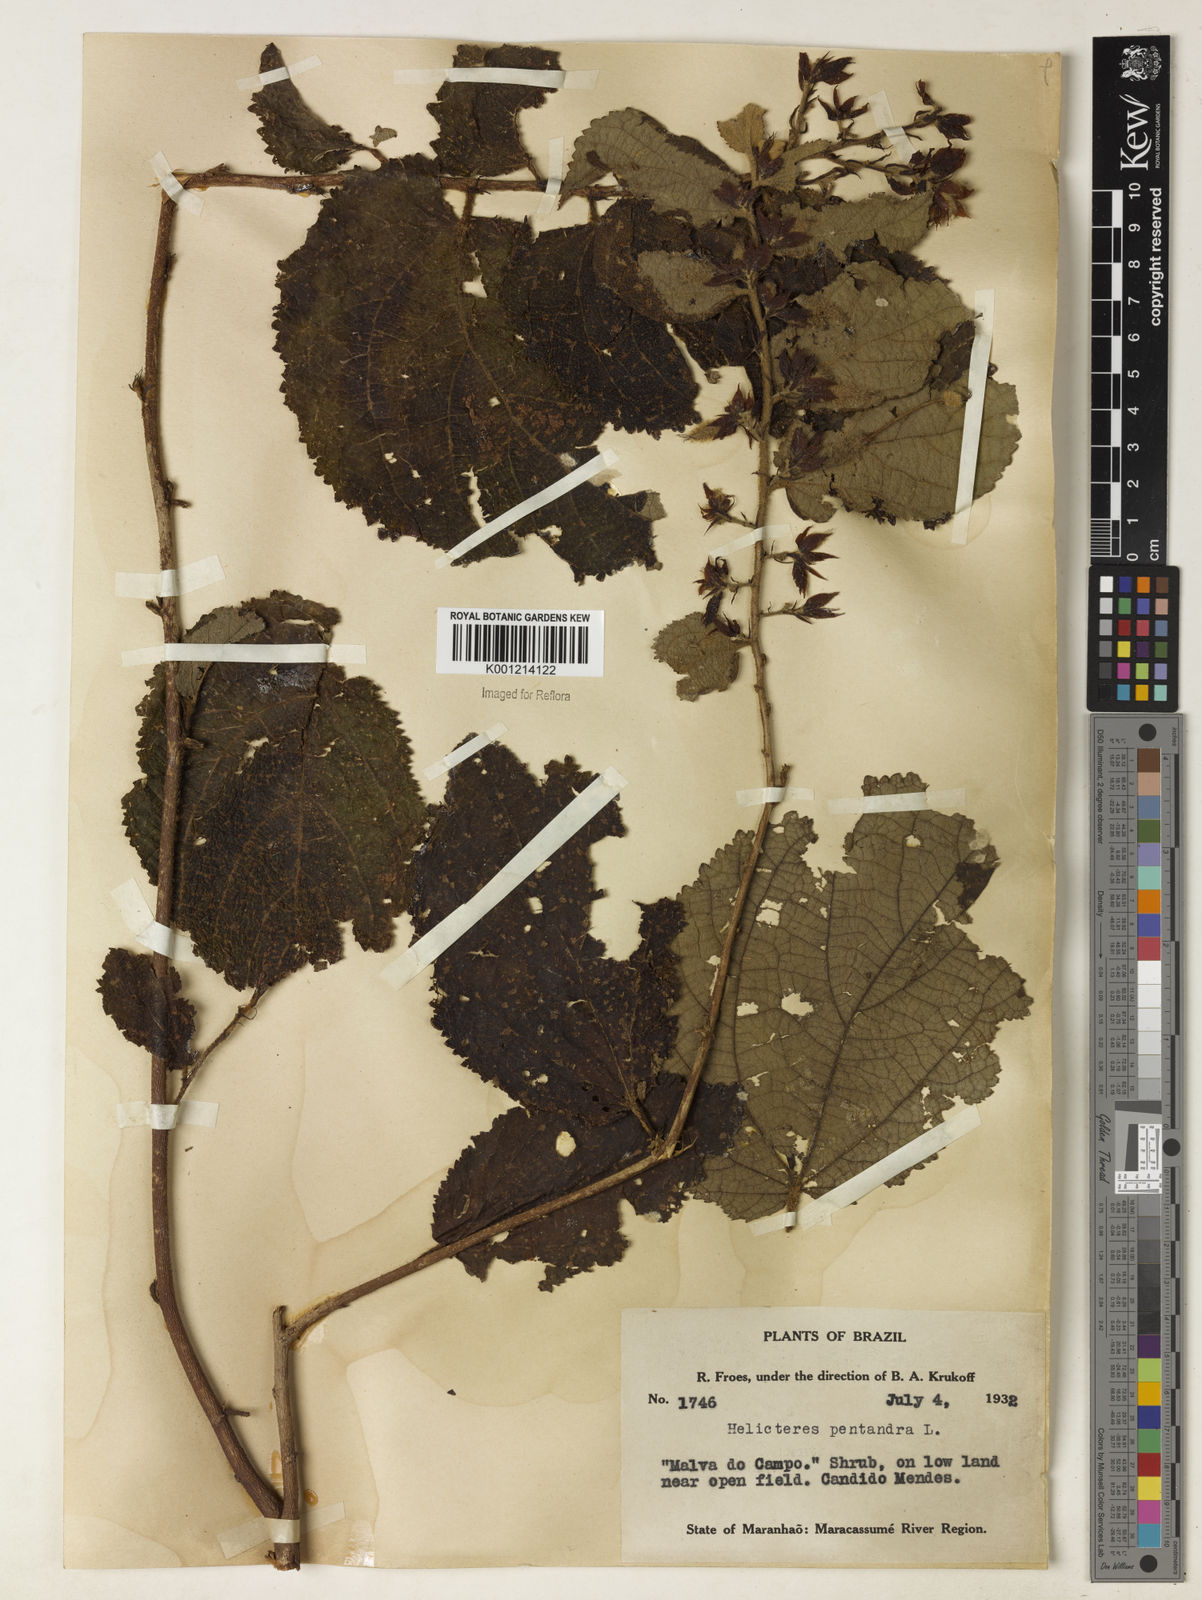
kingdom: Plantae
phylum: Tracheophyta
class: Magnoliopsida
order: Malvales
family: Malvaceae
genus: Helicteres
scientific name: Helicteres pentandra
